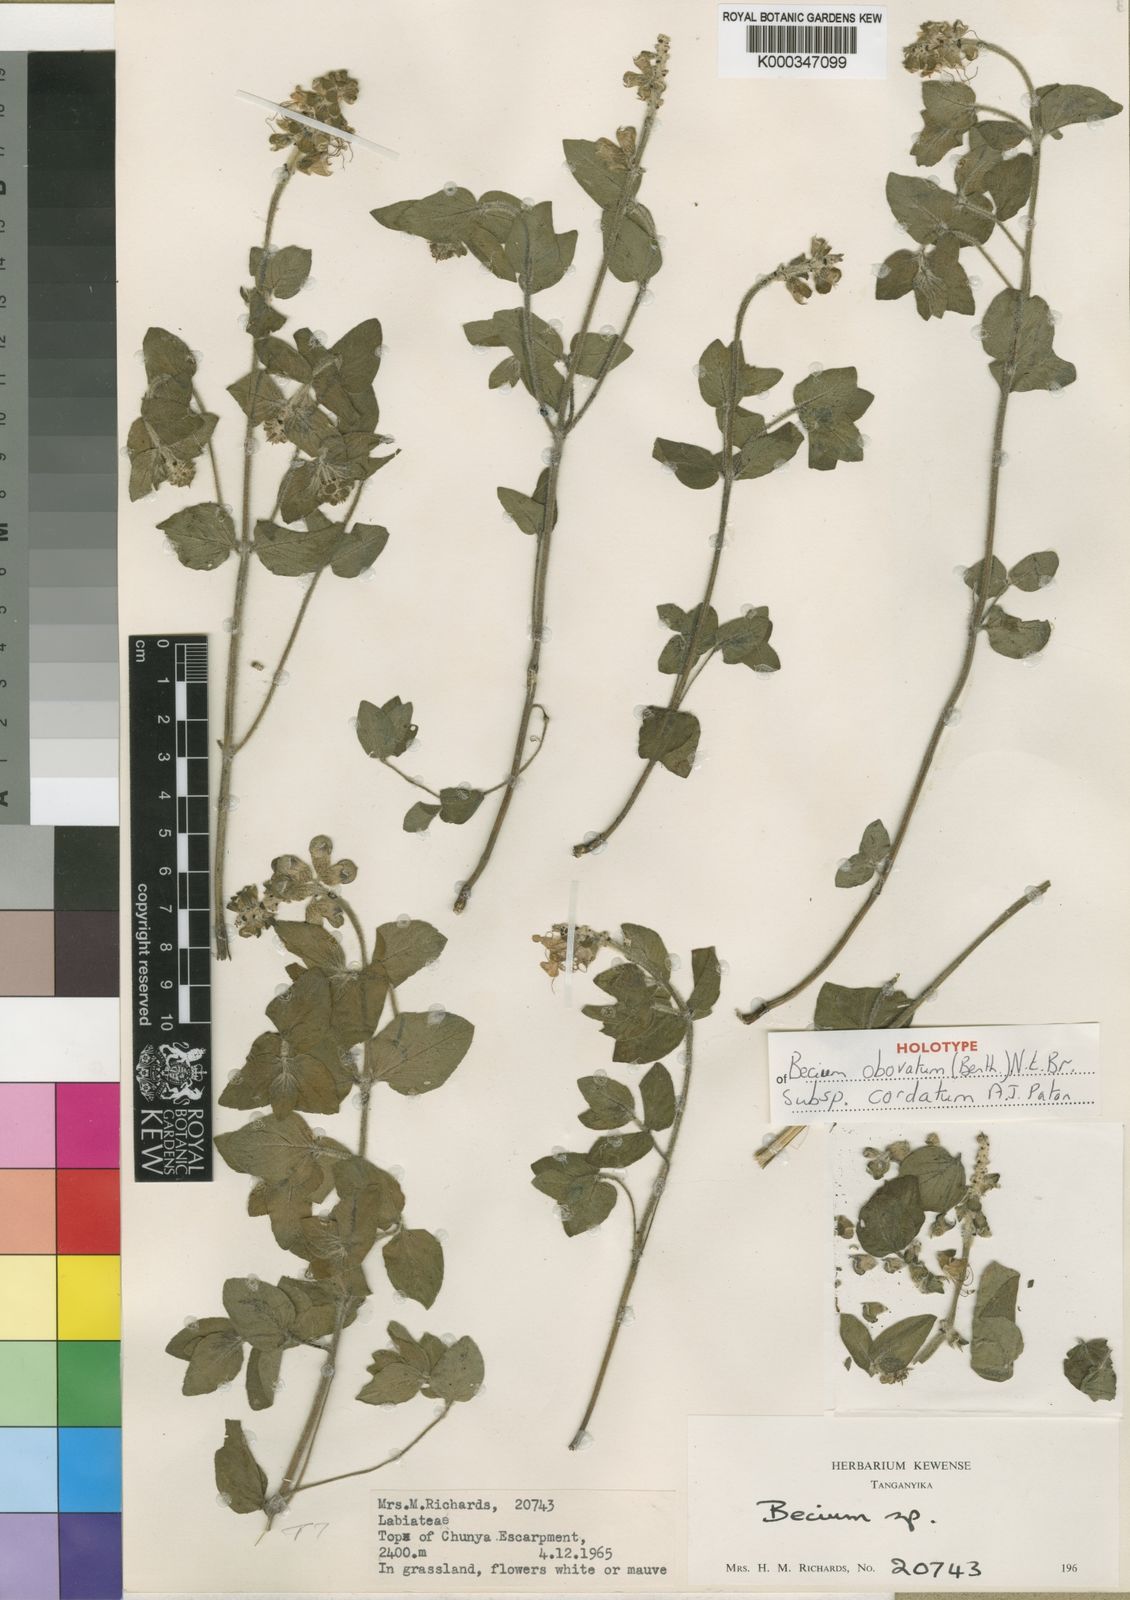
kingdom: Plantae
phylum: Tracheophyta
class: Magnoliopsida
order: Lamiales
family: Lamiaceae
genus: Ocimum
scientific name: Ocimum obovatum
